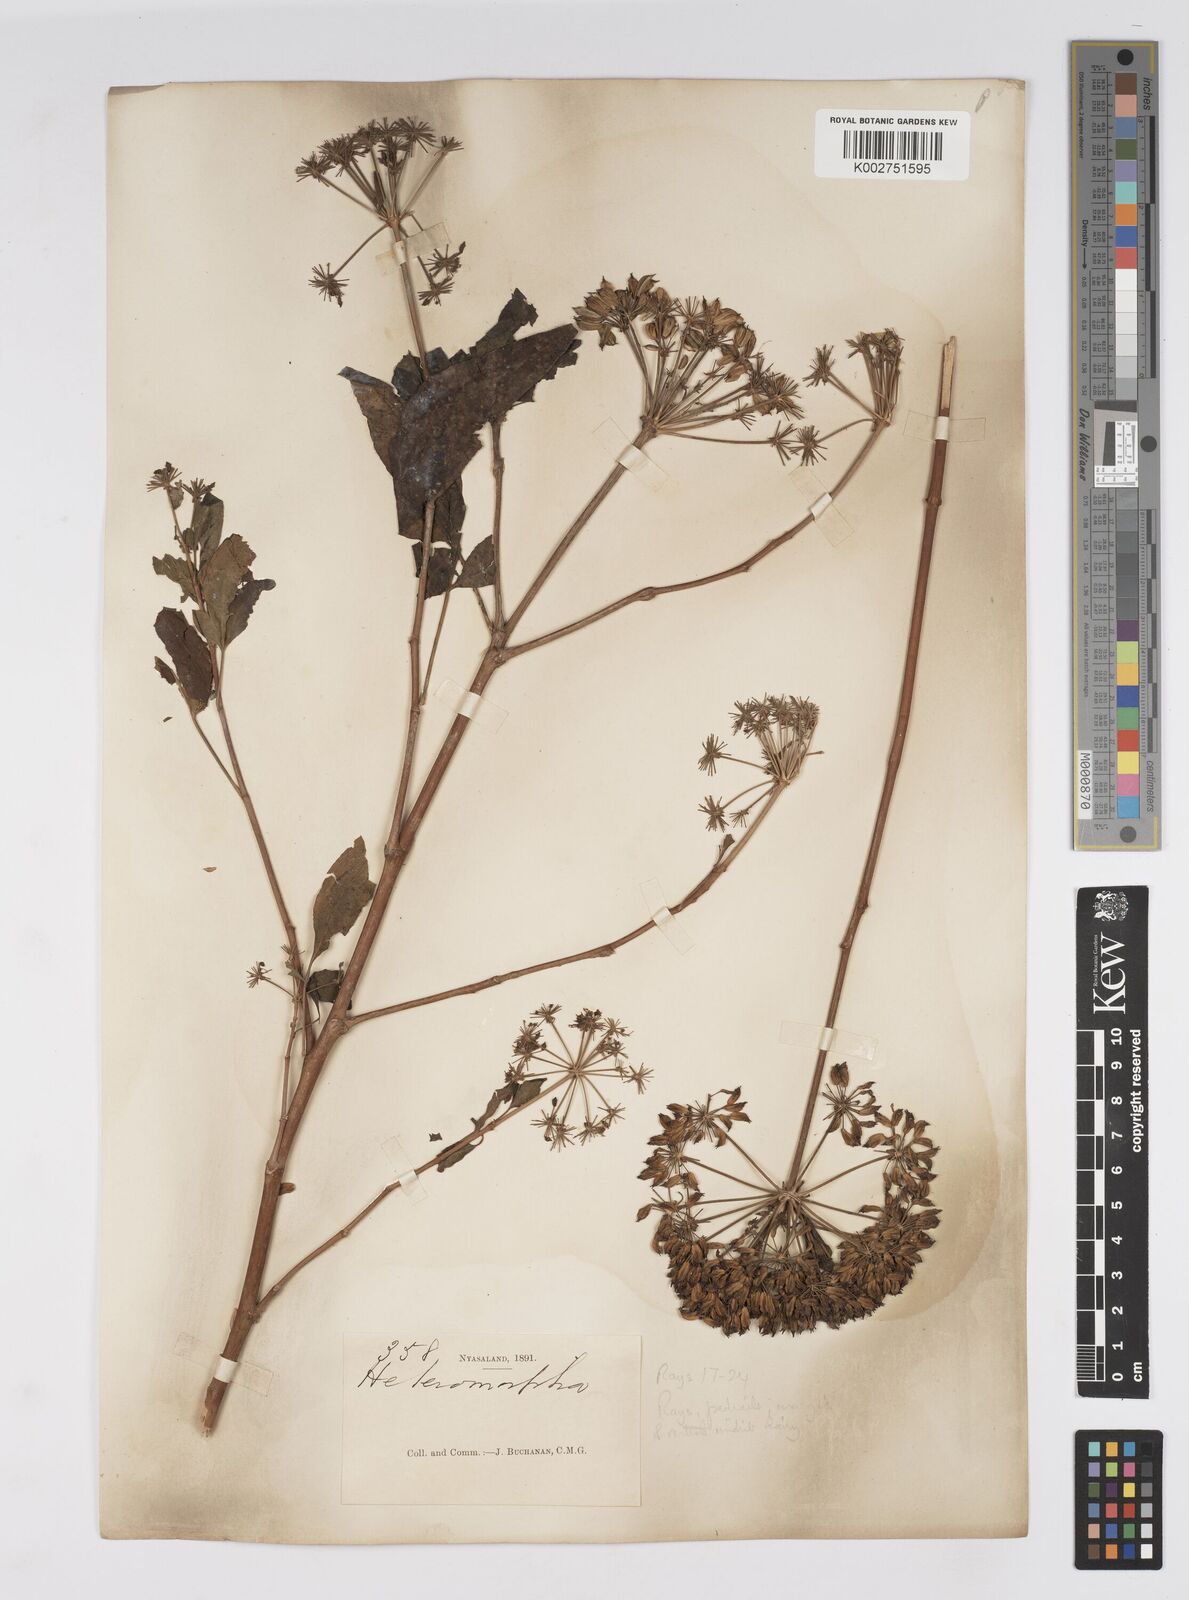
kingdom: Plantae
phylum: Tracheophyta
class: Magnoliopsida
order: Apiales
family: Apiaceae
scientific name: Apiaceae
